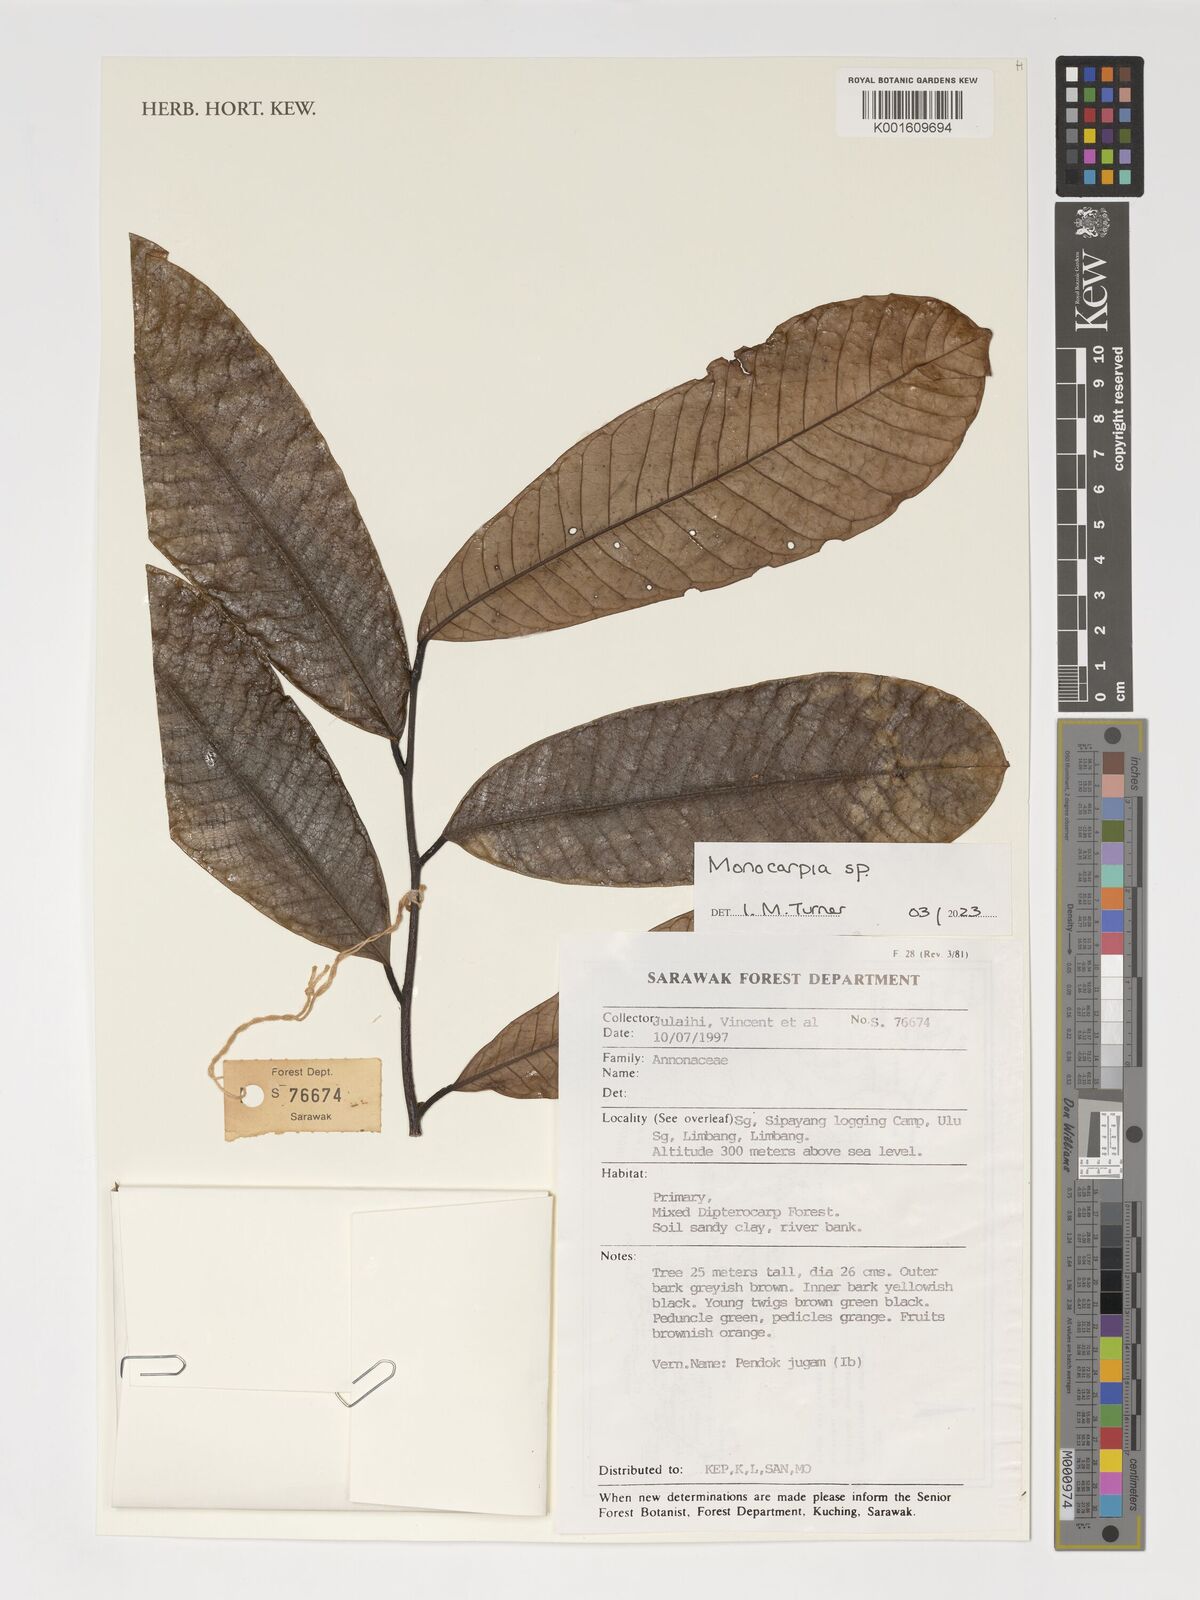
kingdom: Plantae
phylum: Tracheophyta
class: Magnoliopsida
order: Magnoliales
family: Annonaceae
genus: Monocarpia
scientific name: Monocarpia
